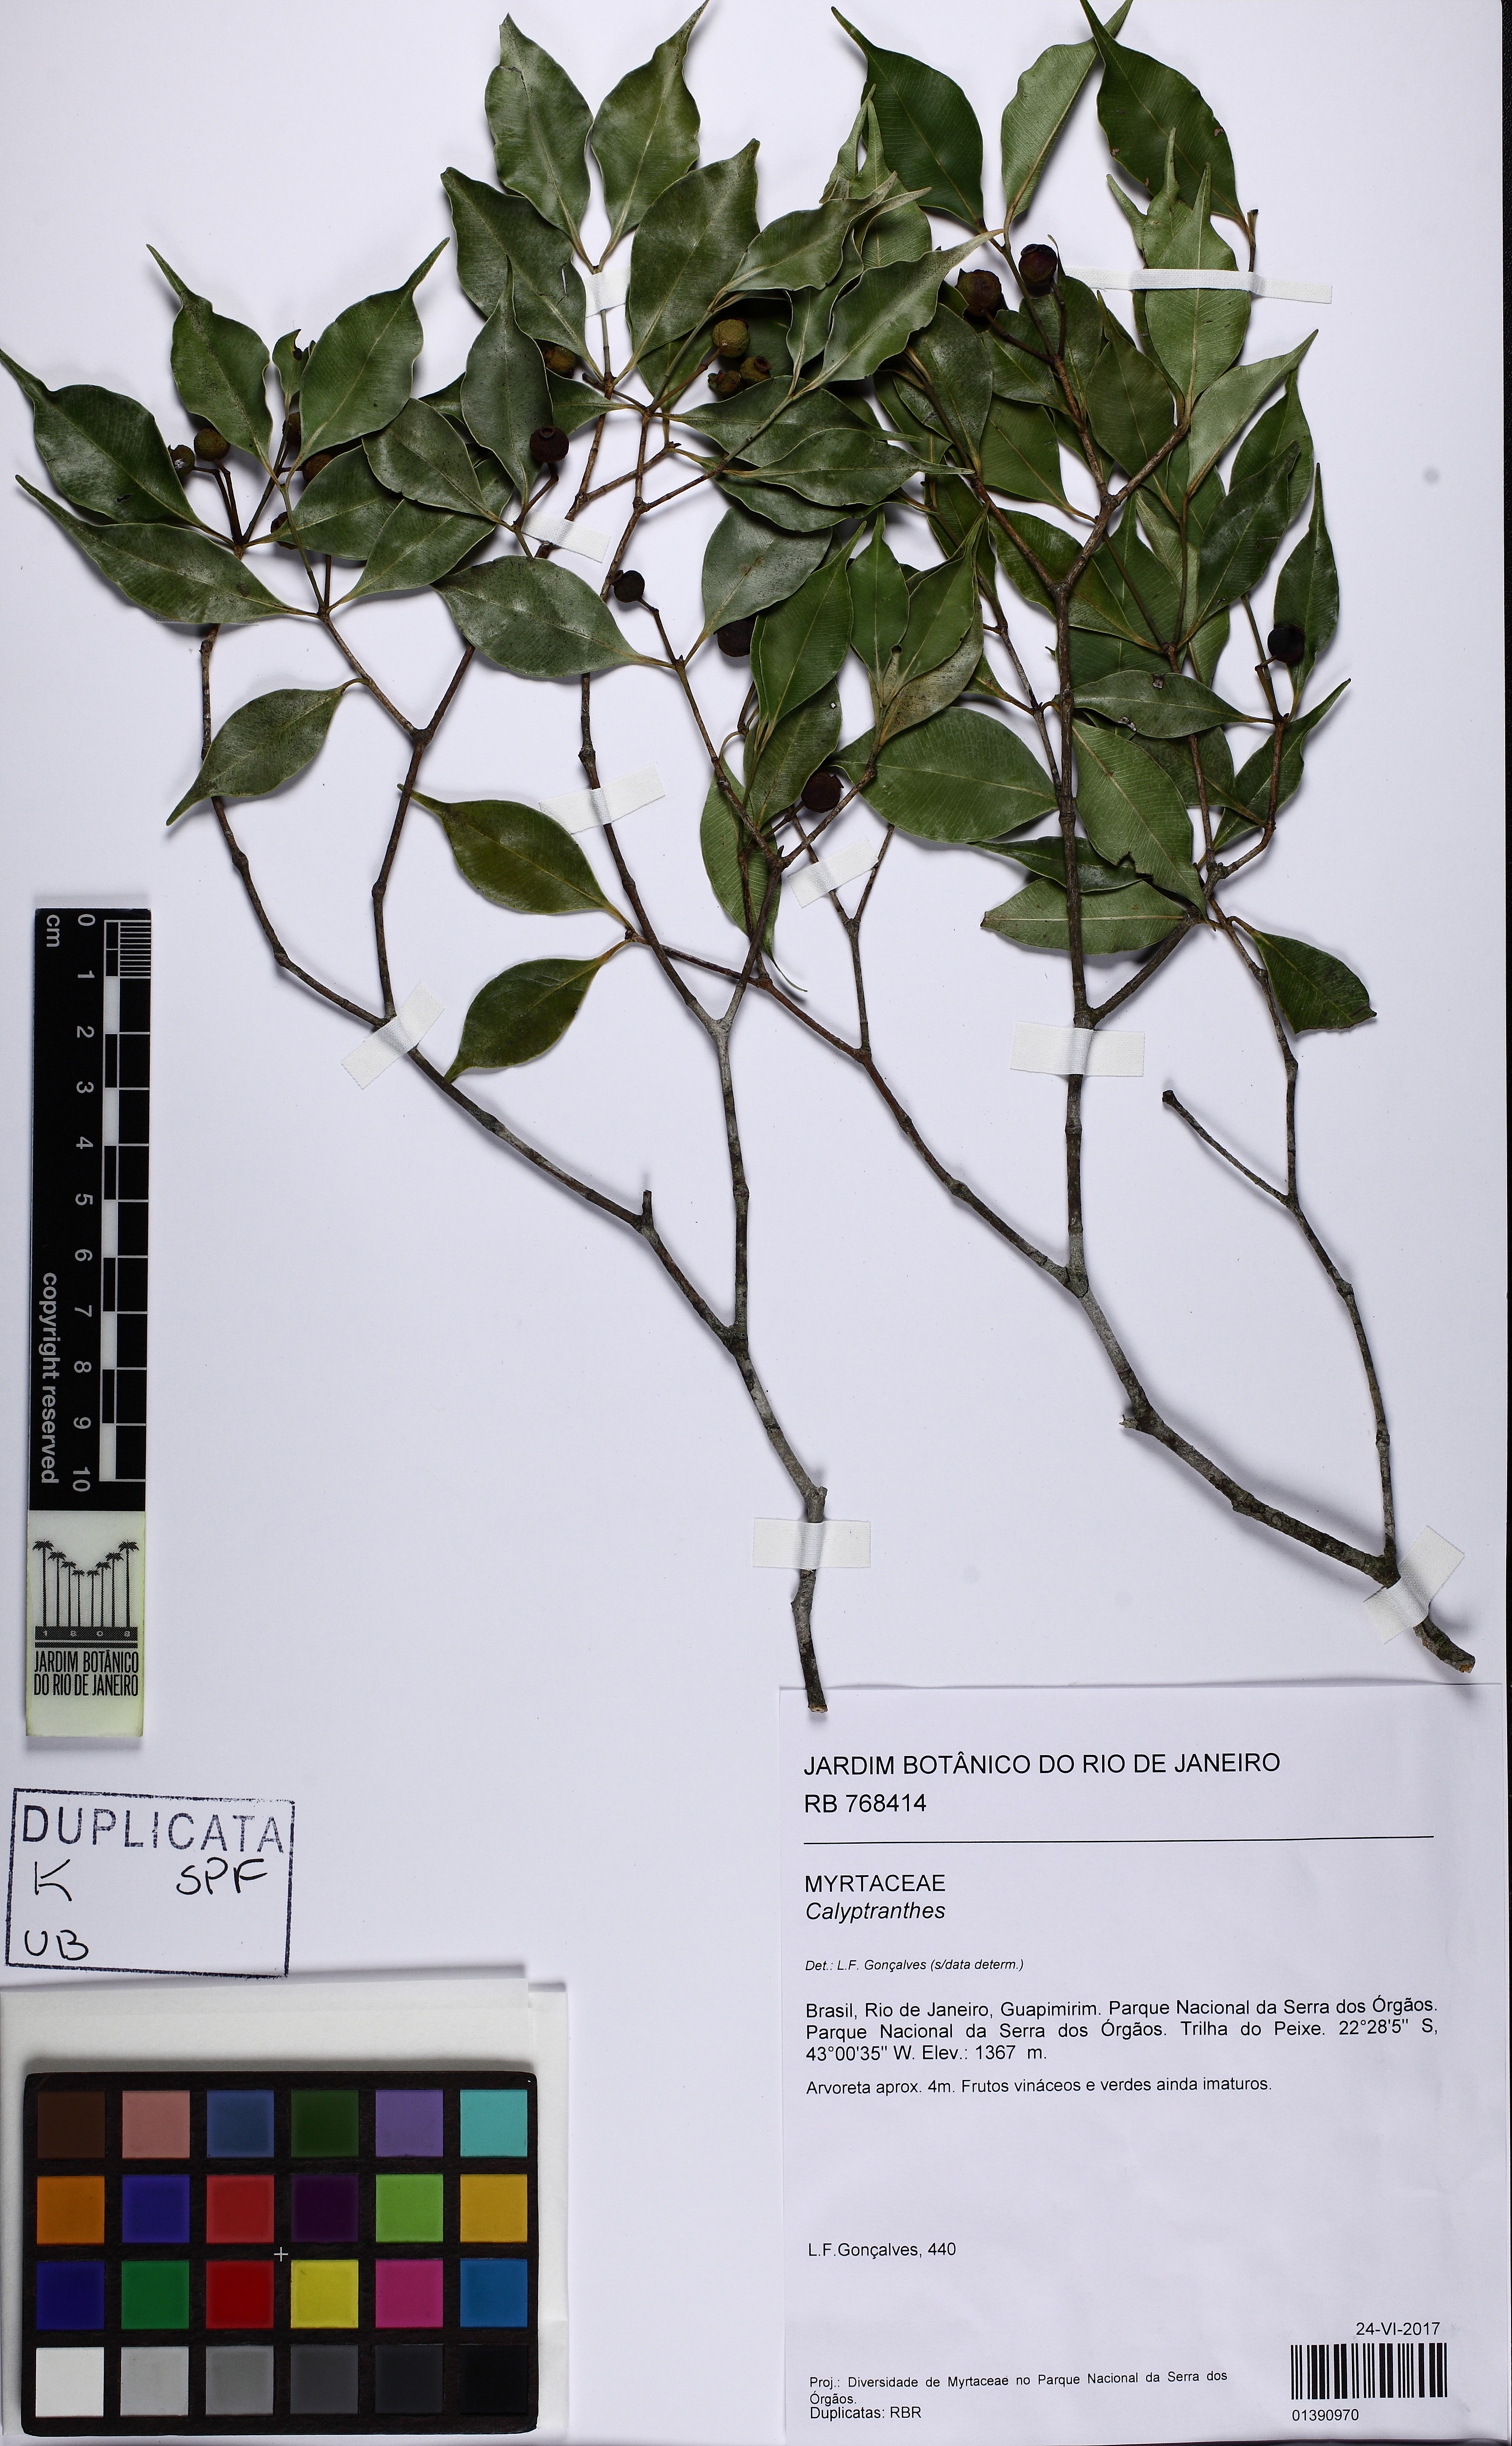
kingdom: Plantae
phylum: Tracheophyta
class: Magnoliopsida
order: Myrtales
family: Myrtaceae
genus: Calyptranthes
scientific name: Calyptranthes
